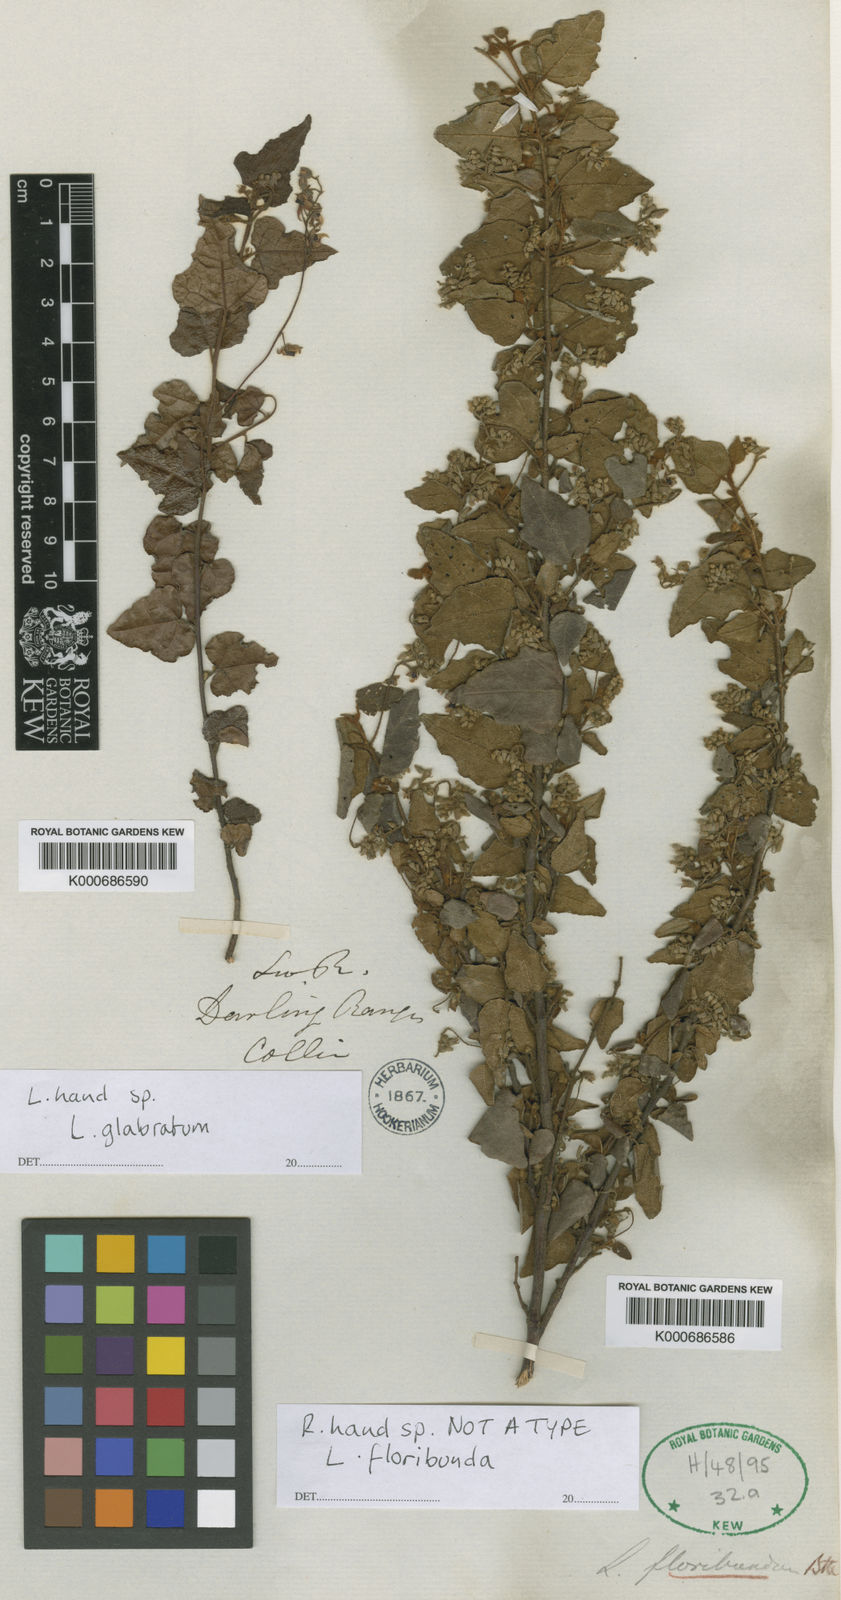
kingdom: Plantae
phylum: Tracheophyta
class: Magnoliopsida
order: Malvales
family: Malvaceae
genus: Lasiopetalum
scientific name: Lasiopetalum floribundum
